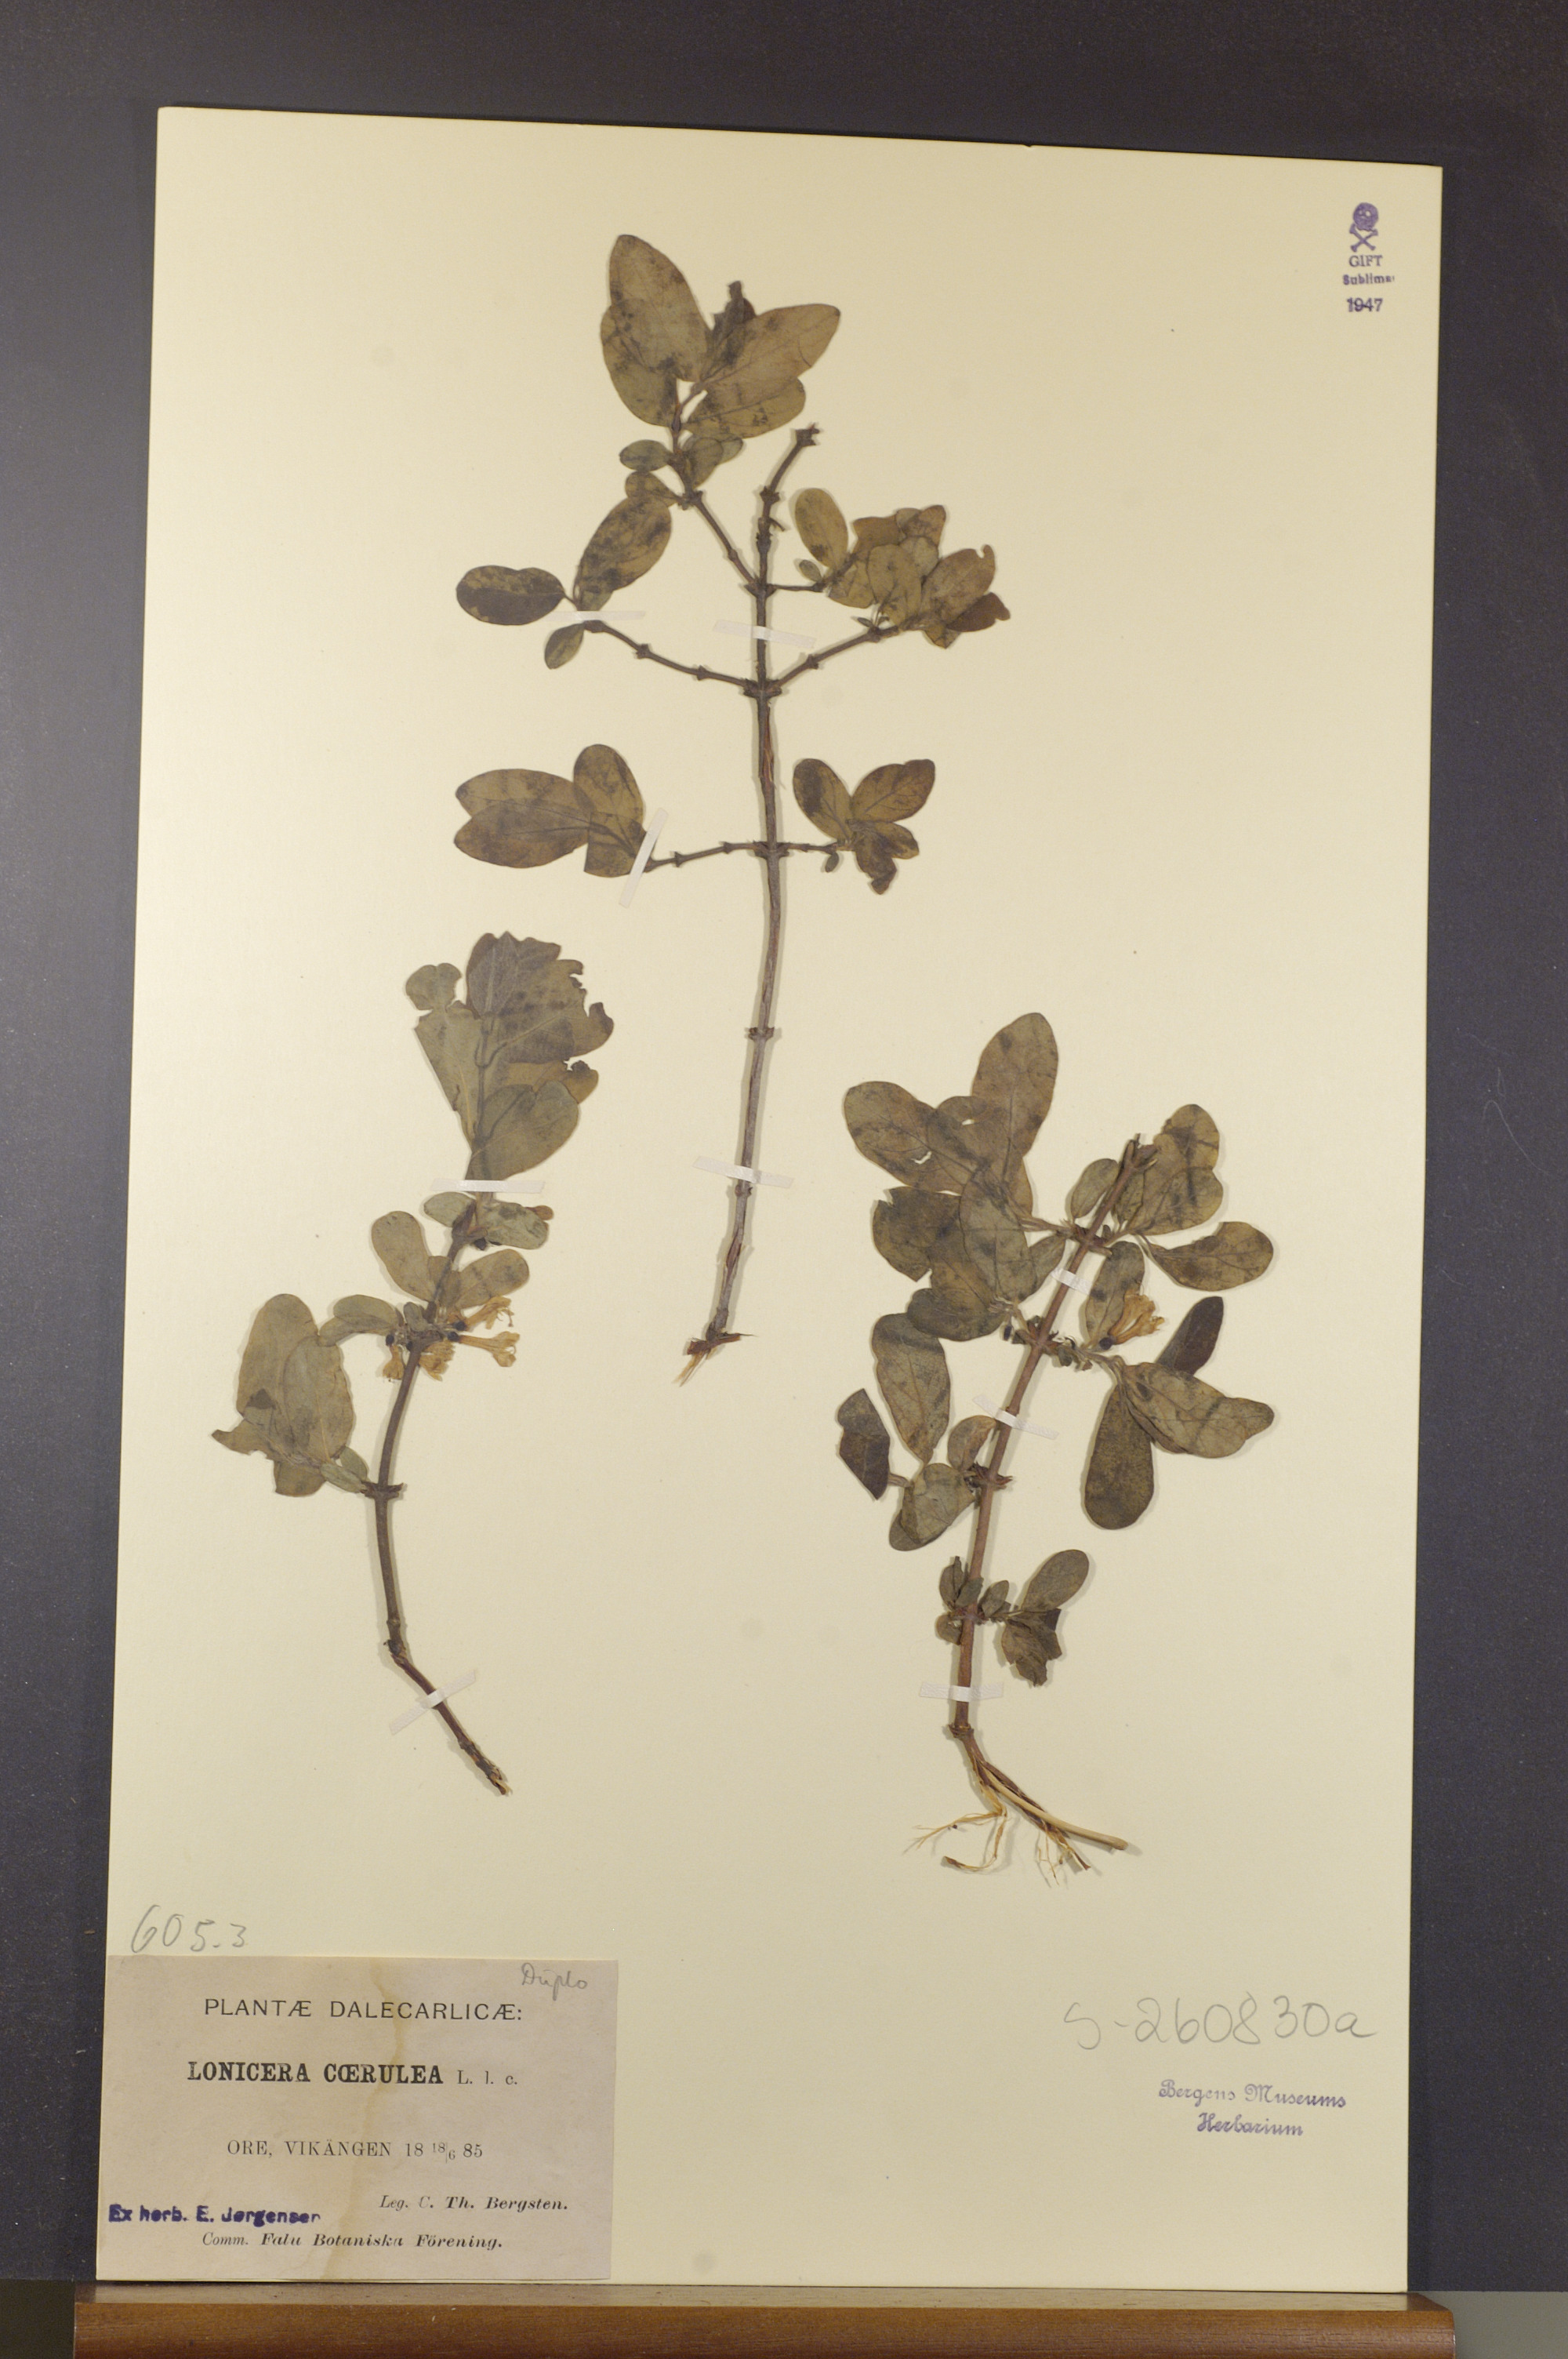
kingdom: Plantae
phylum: Tracheophyta
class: Magnoliopsida
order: Dipsacales
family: Caprifoliaceae
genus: Lonicera
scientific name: Lonicera caerulea
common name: Blue honeysuckle
